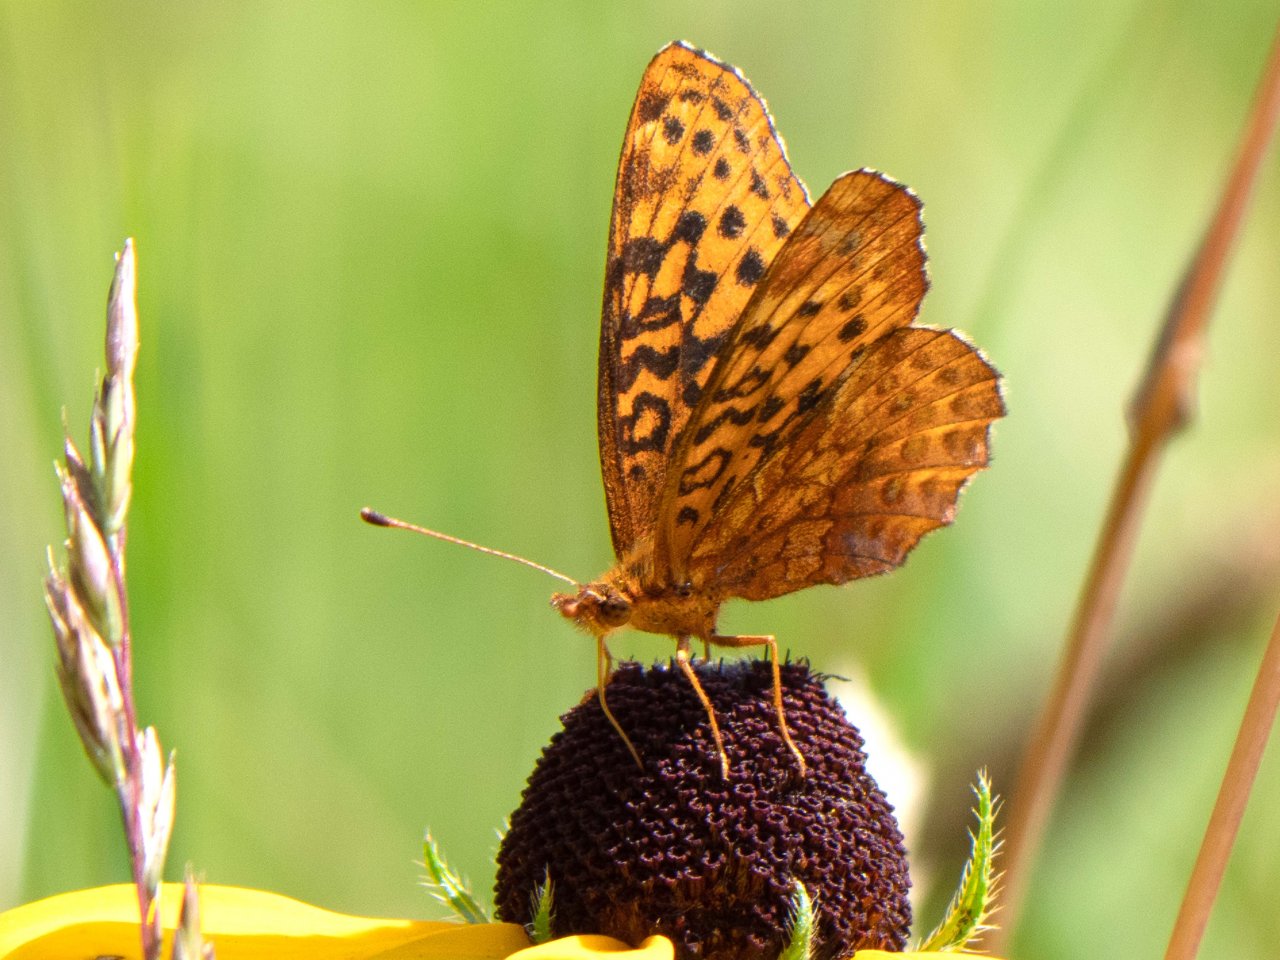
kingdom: Animalia
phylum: Arthropoda
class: Insecta
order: Lepidoptera
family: Nymphalidae
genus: Clossiana
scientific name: Clossiana toddi
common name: Meadow Fritillary
